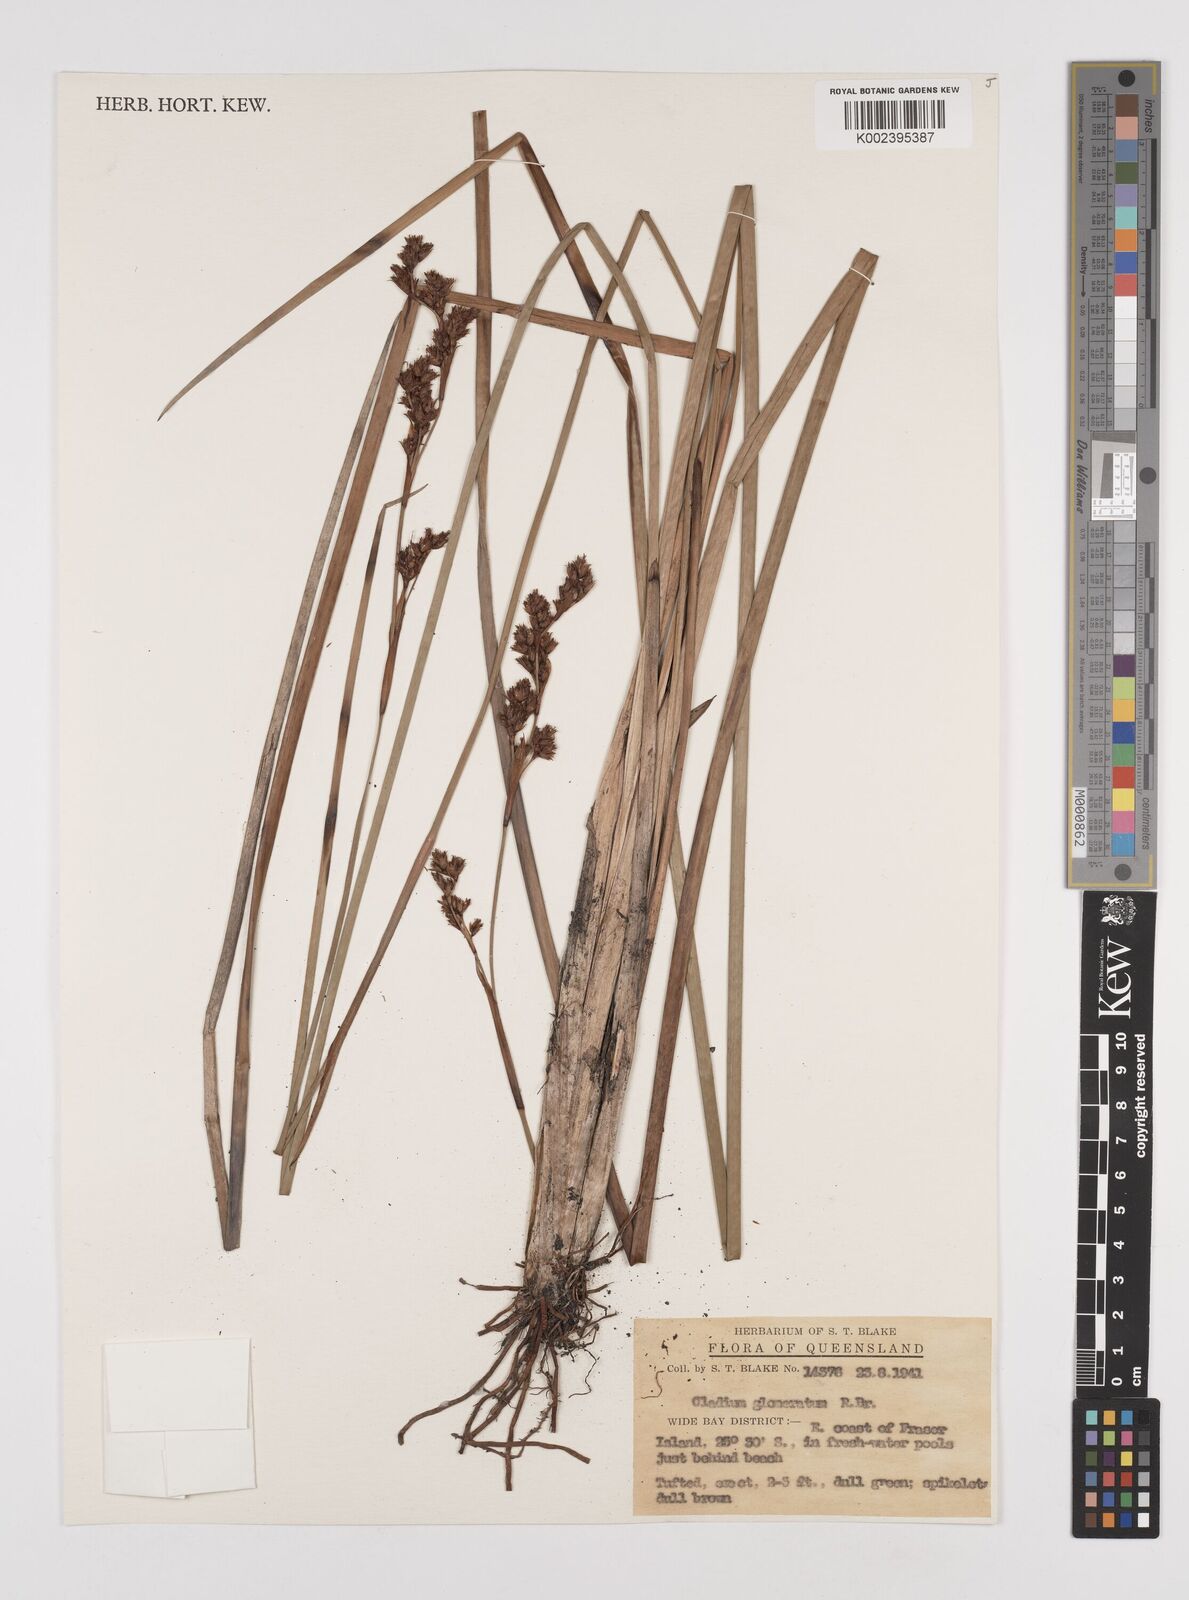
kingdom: Plantae
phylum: Tracheophyta
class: Liliopsida
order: Poales
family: Cyperaceae
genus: Machaerina
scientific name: Machaerina rubiginosa
